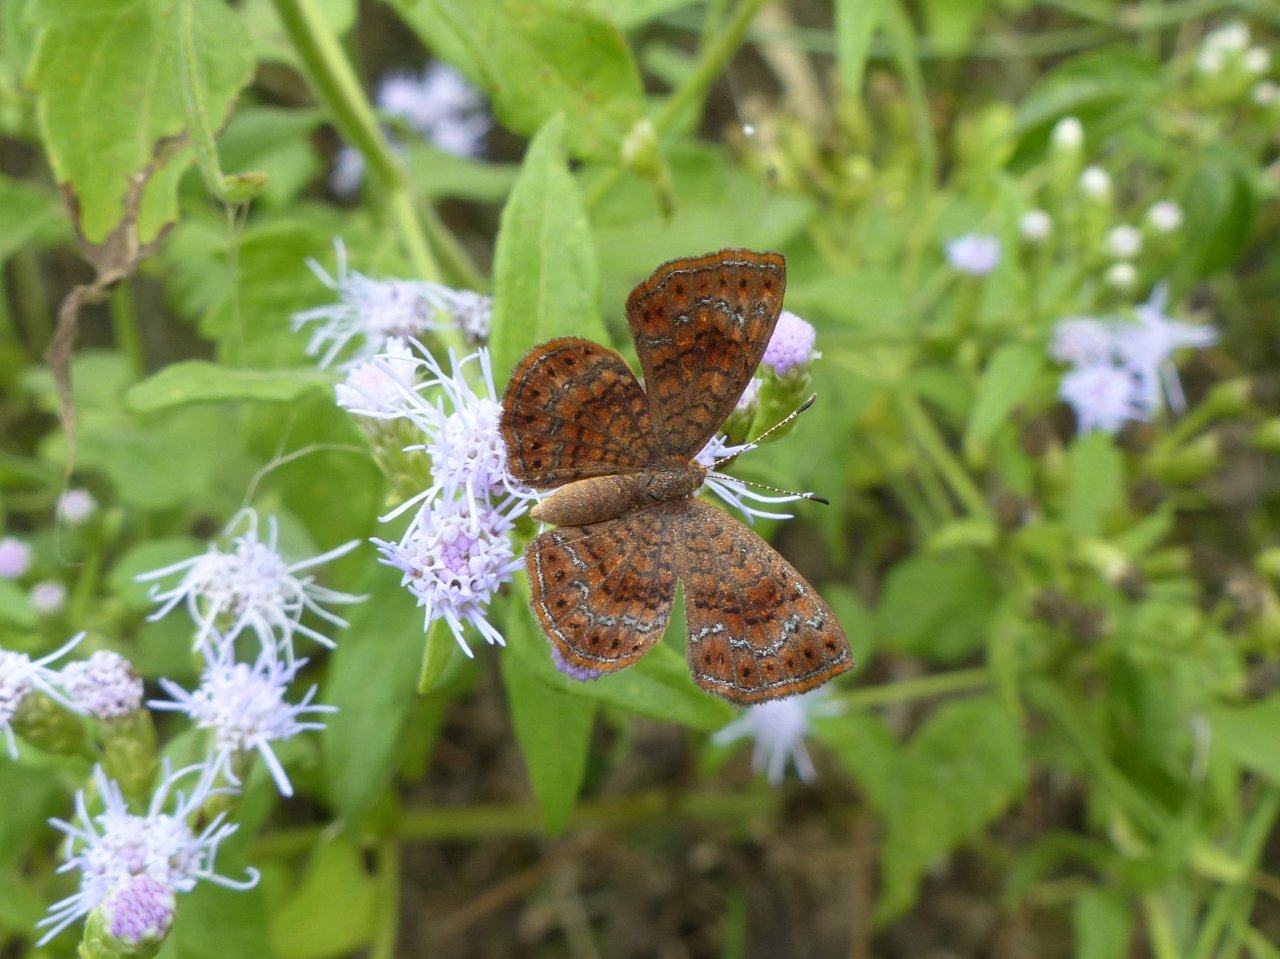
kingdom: Animalia
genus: Calephelis
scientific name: Calephelis perditalis
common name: Rounded Metalmark
